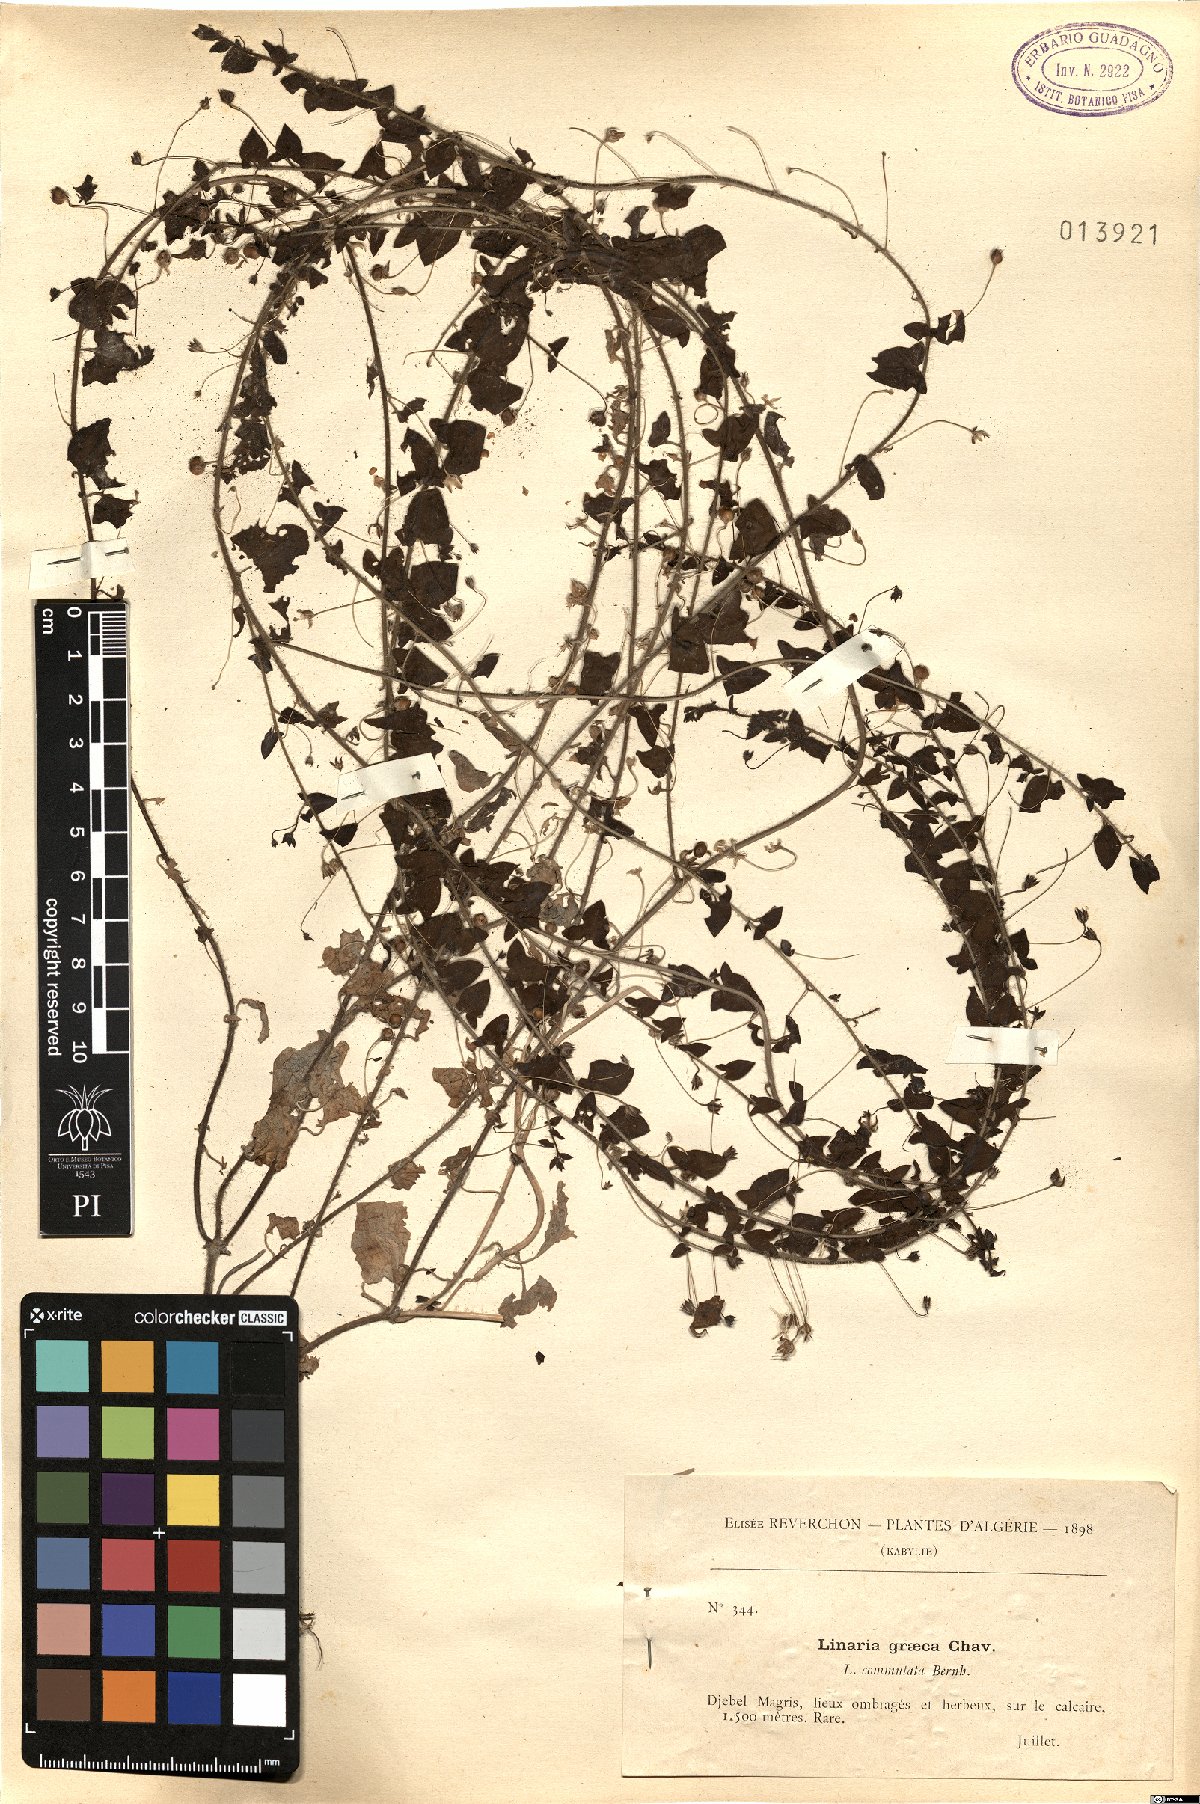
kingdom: Plantae
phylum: Tracheophyta
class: Magnoliopsida
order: Lamiales
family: Plantaginaceae
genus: Kickxia
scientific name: Kickxia commutata
